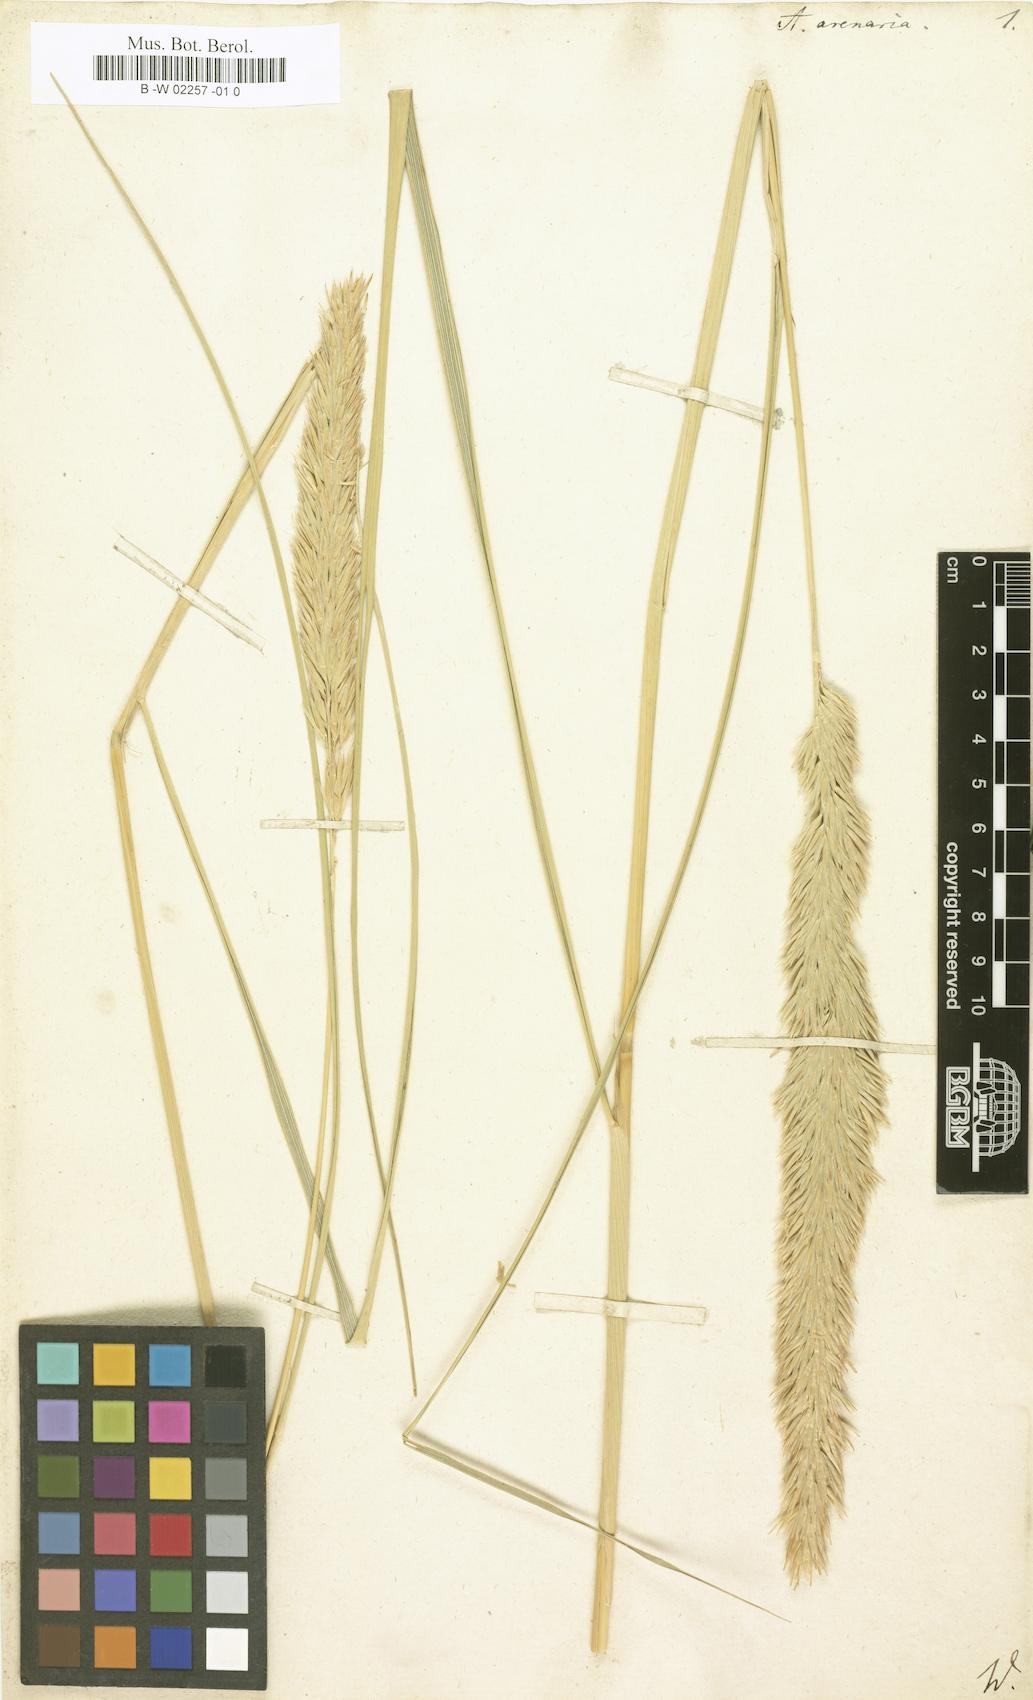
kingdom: Plantae
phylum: Tracheophyta
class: Liliopsida
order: Poales
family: Poaceae
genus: Arundo
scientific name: Arundo arenaria
